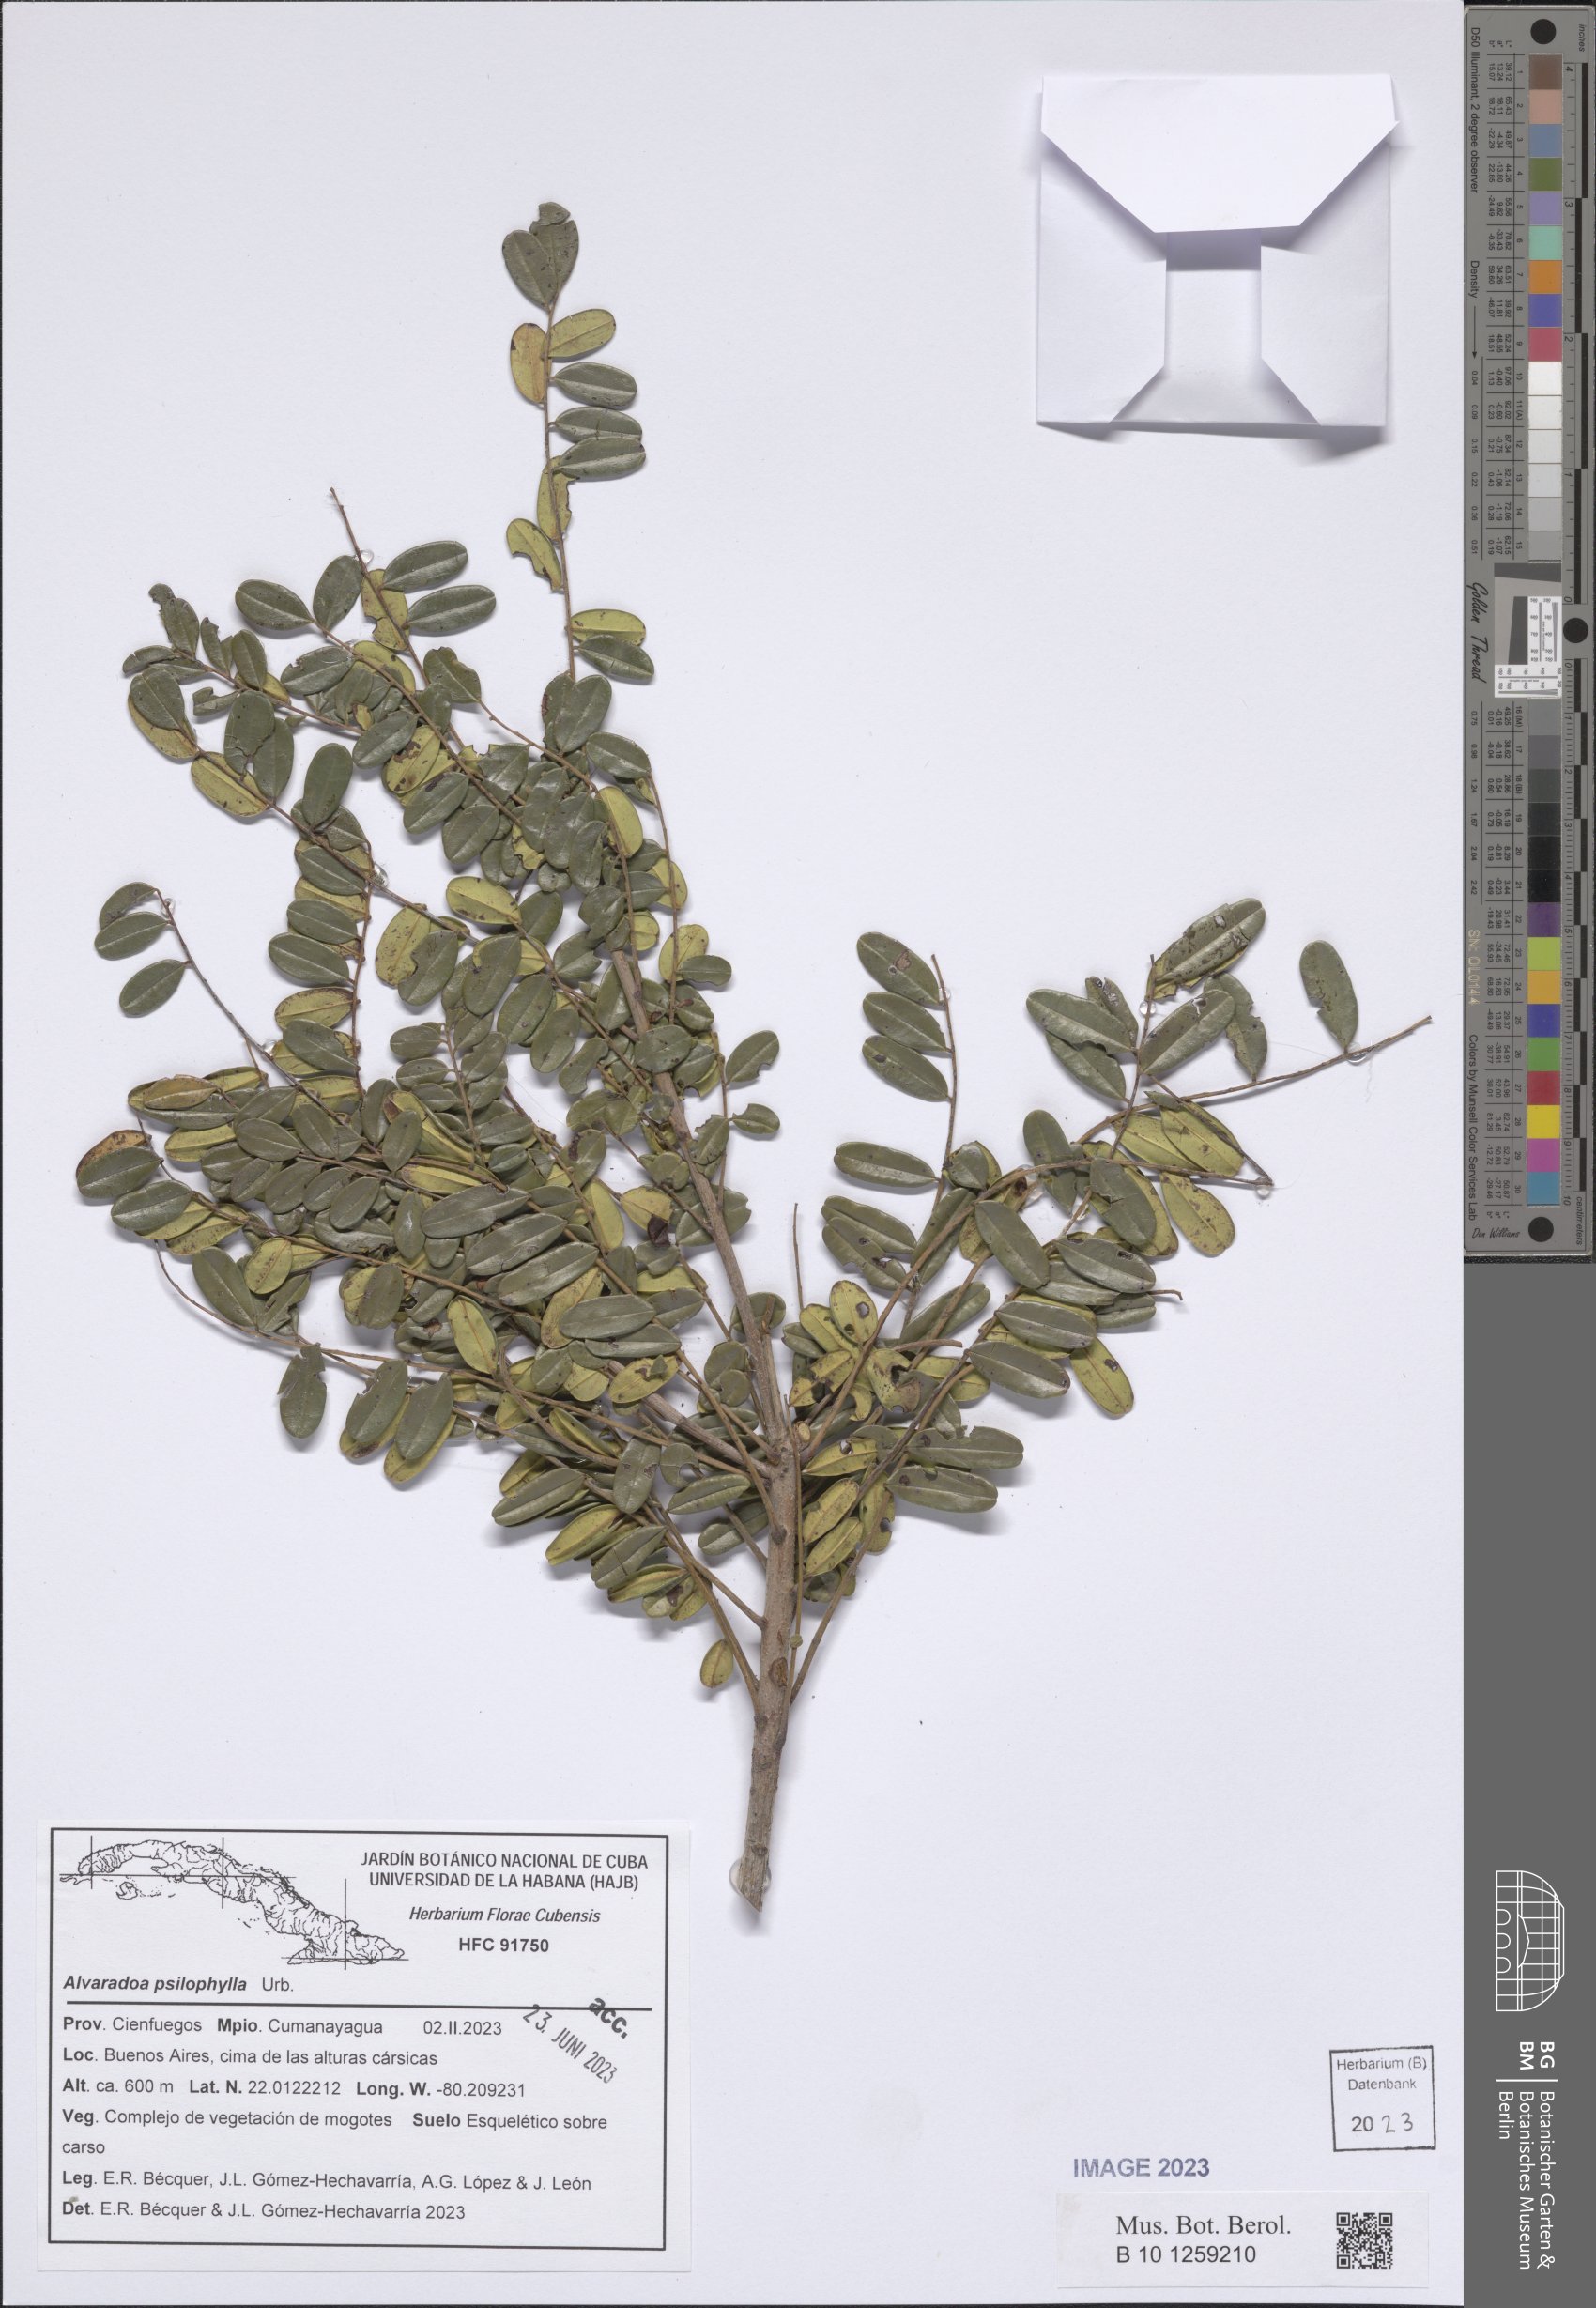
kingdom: Plantae
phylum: Tracheophyta
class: Magnoliopsida
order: Picramniales
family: Picramniaceae
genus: Alvaradoa
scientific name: Alvaradoa amorphoides
